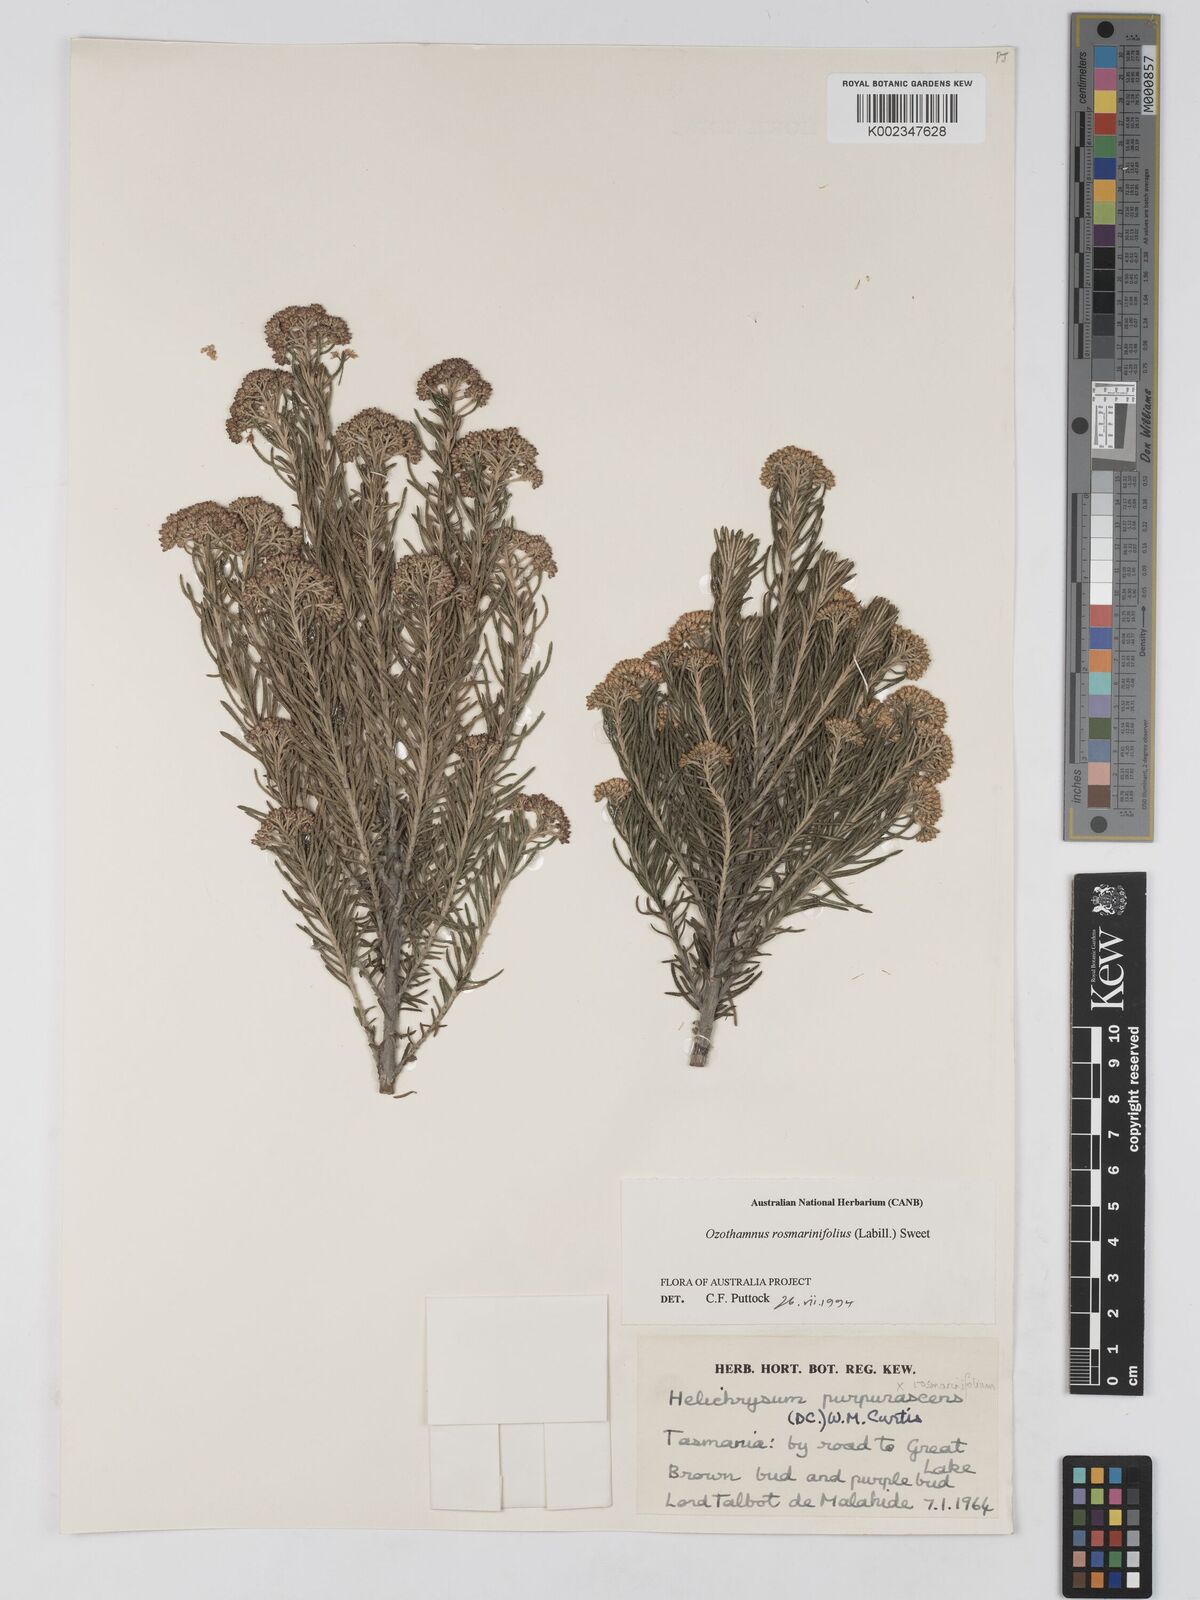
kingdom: Plantae
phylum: Tracheophyta
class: Magnoliopsida
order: Asterales
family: Asteraceae
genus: Ozothamnus
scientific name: Ozothamnus rosmarinifolius
